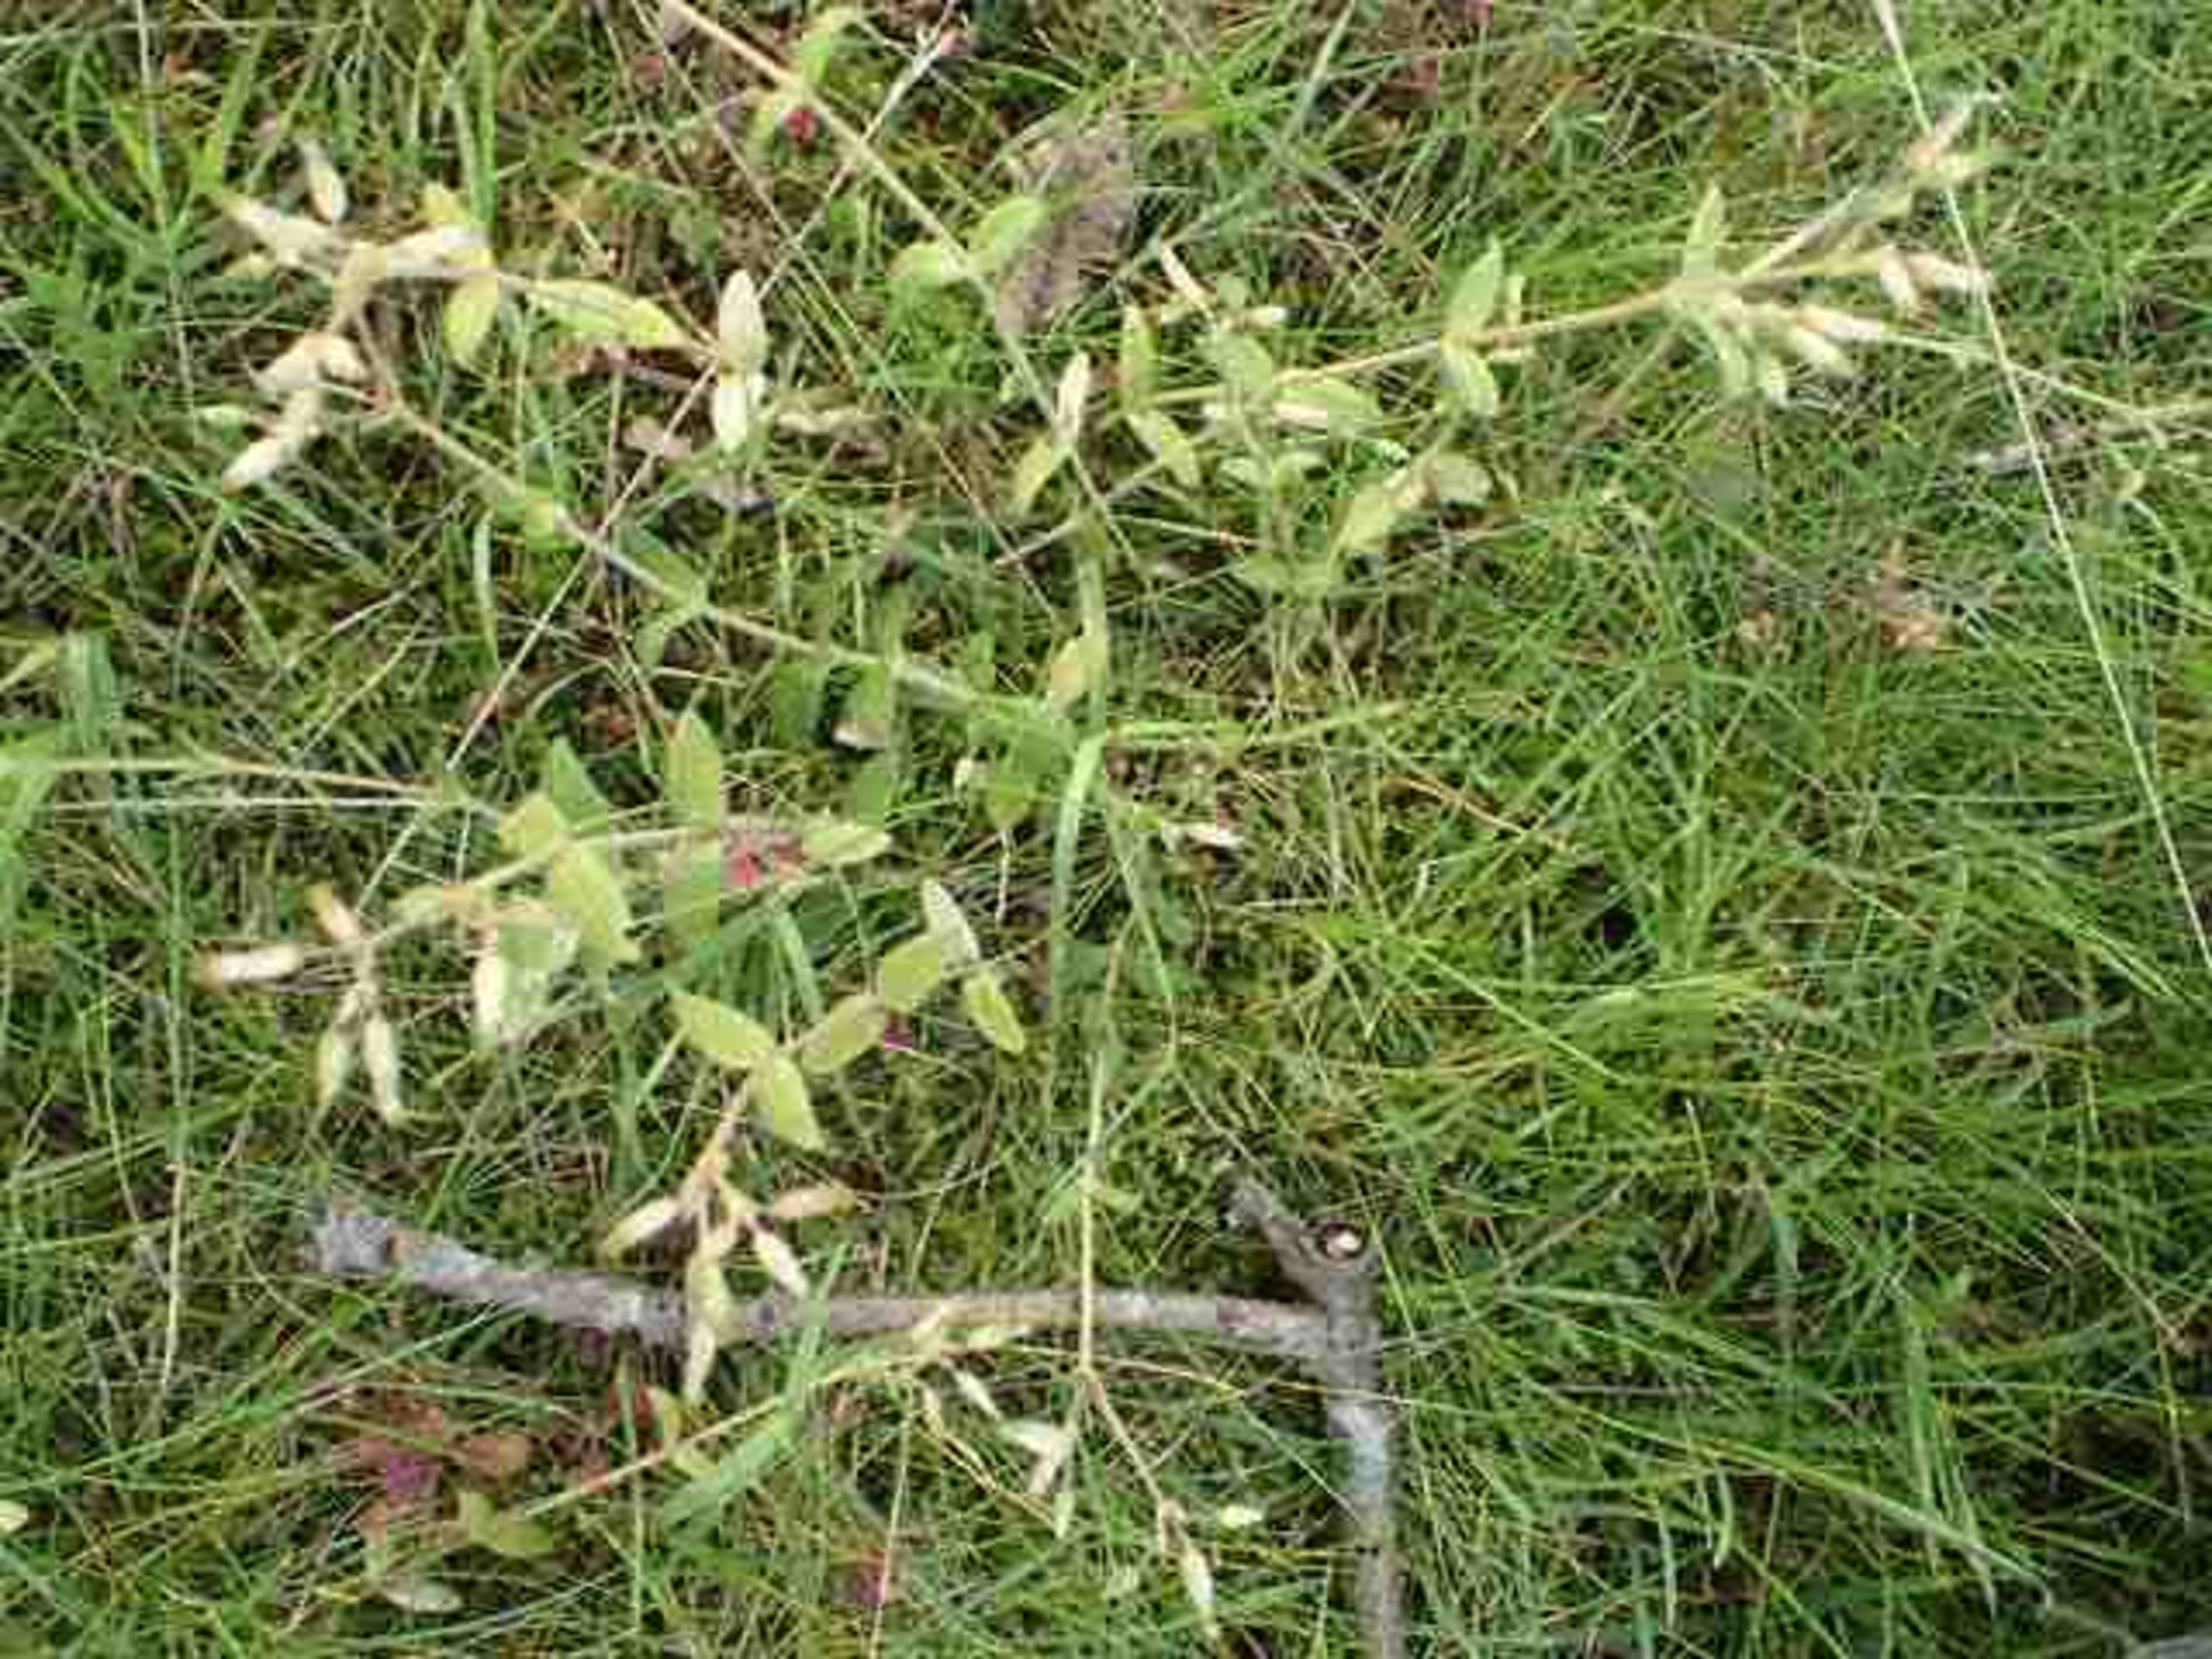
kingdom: Plantae
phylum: Tracheophyta
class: Magnoliopsida
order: Caryophyllales
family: Caryophyllaceae
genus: Cerastium
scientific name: Cerastium fontanum
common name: Almindelig hønsetarm
